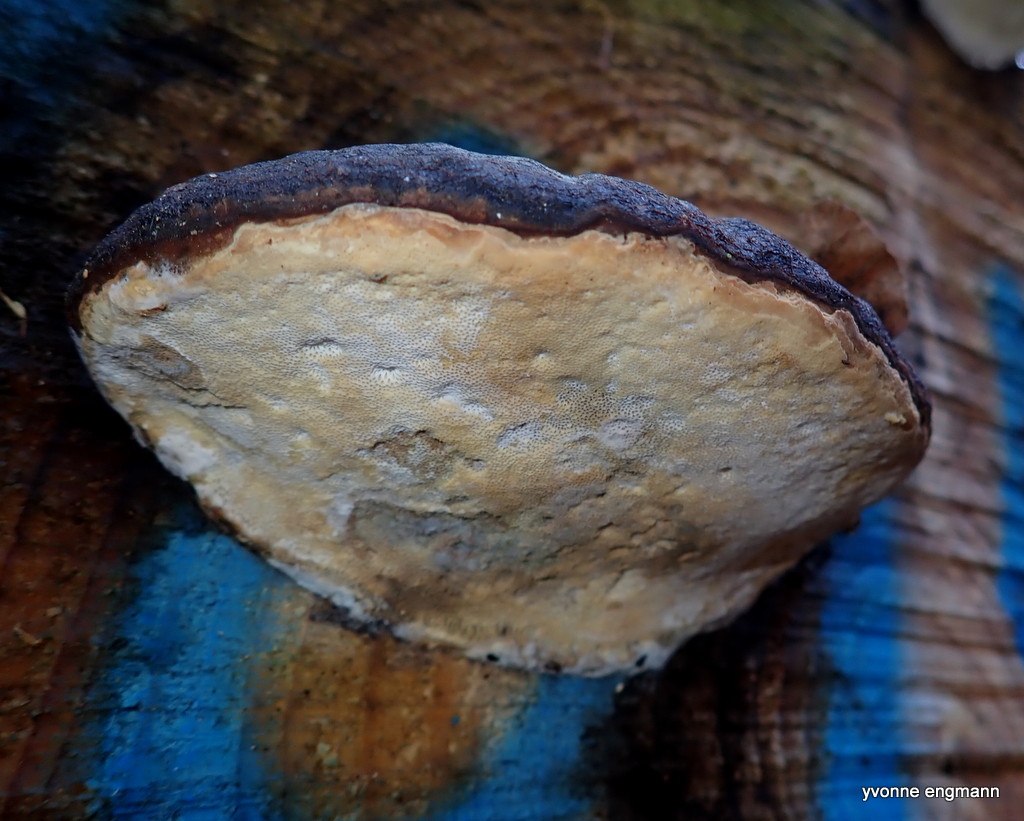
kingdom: Fungi
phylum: Basidiomycota
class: Agaricomycetes
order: Polyporales
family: Fomitopsidaceae
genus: Fomitopsis
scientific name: Fomitopsis pinicola
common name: randbæltet hovporesvamp
